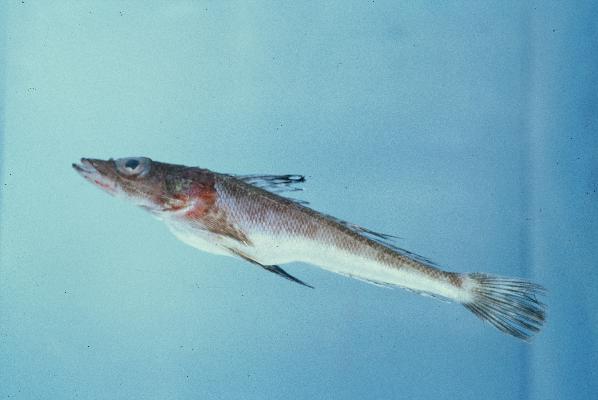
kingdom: Animalia
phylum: Chordata
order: Scorpaeniformes
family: Platycephalidae
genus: Cociella
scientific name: Cociella heemstrai
